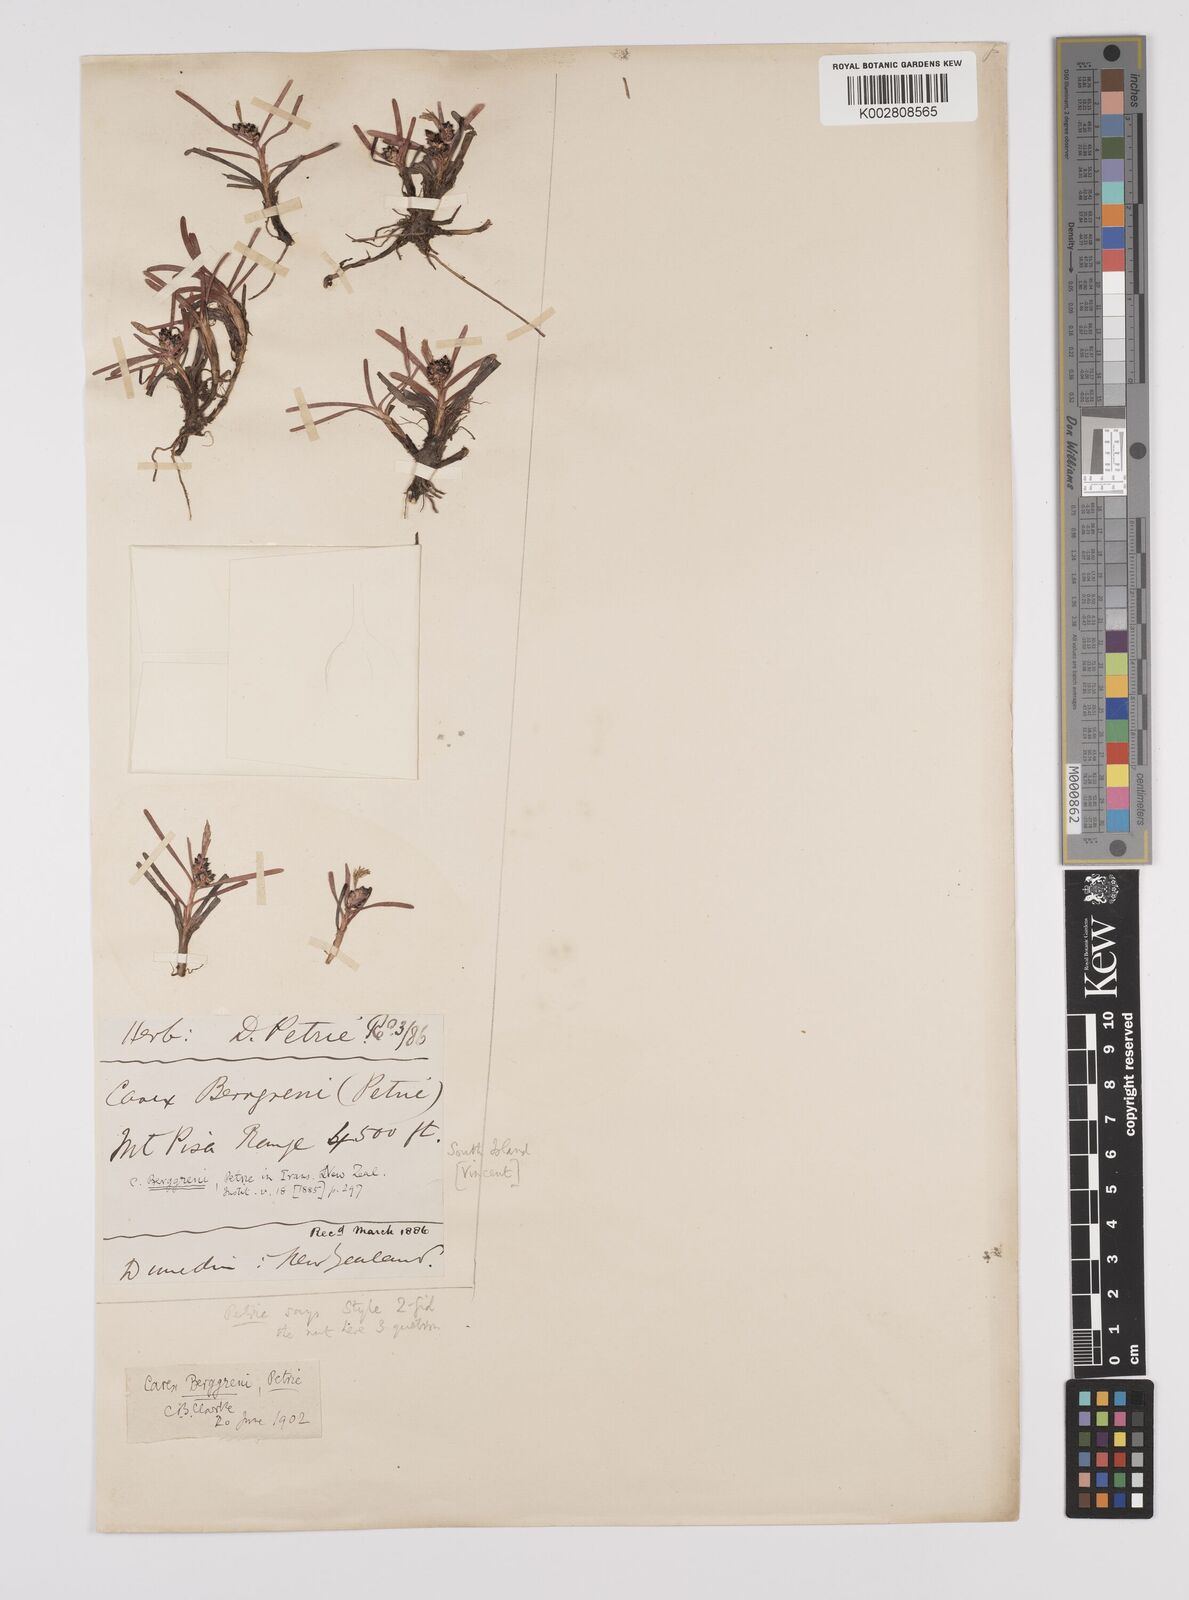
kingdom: Plantae
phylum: Tracheophyta
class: Liliopsida
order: Poales
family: Cyperaceae
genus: Carex
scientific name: Carex talbotii
